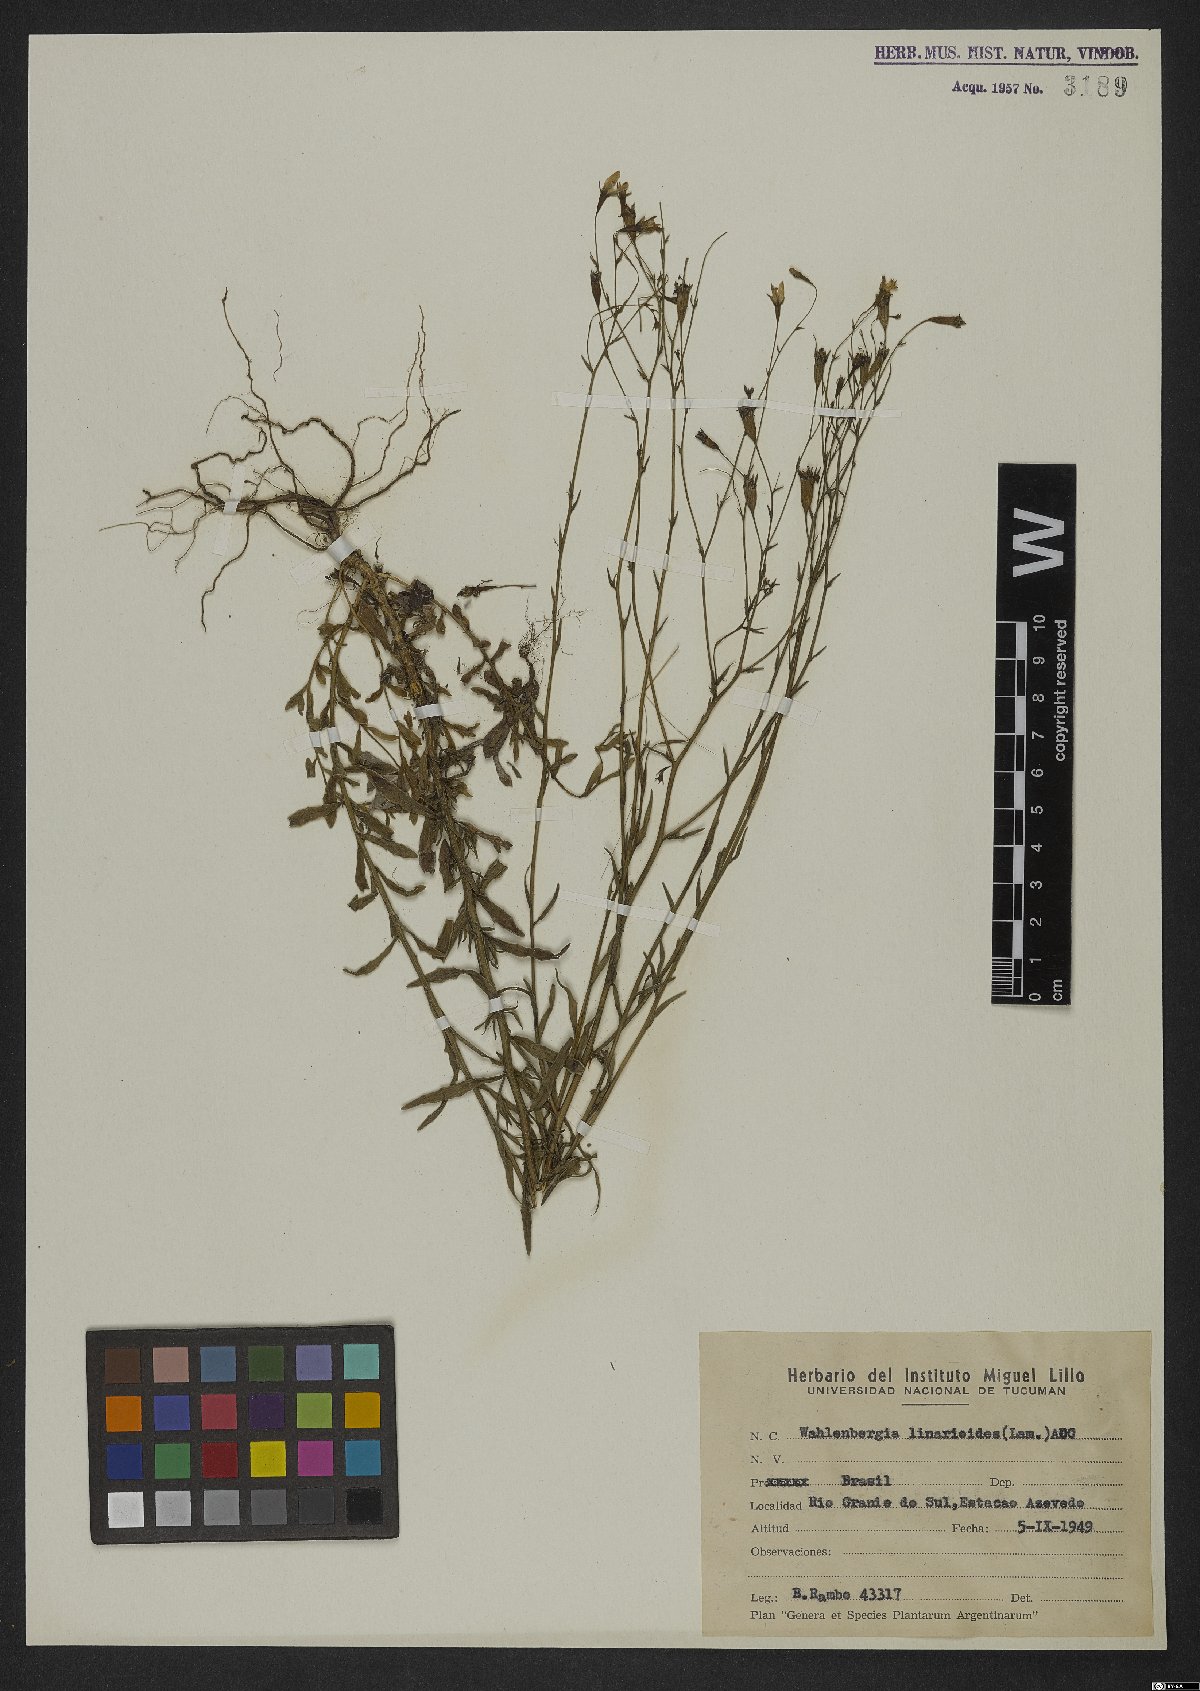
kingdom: Plantae
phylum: Tracheophyta
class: Magnoliopsida
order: Asterales
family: Campanulaceae
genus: Wahlenbergia
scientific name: Wahlenbergia linarioides
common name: Tuffybells
